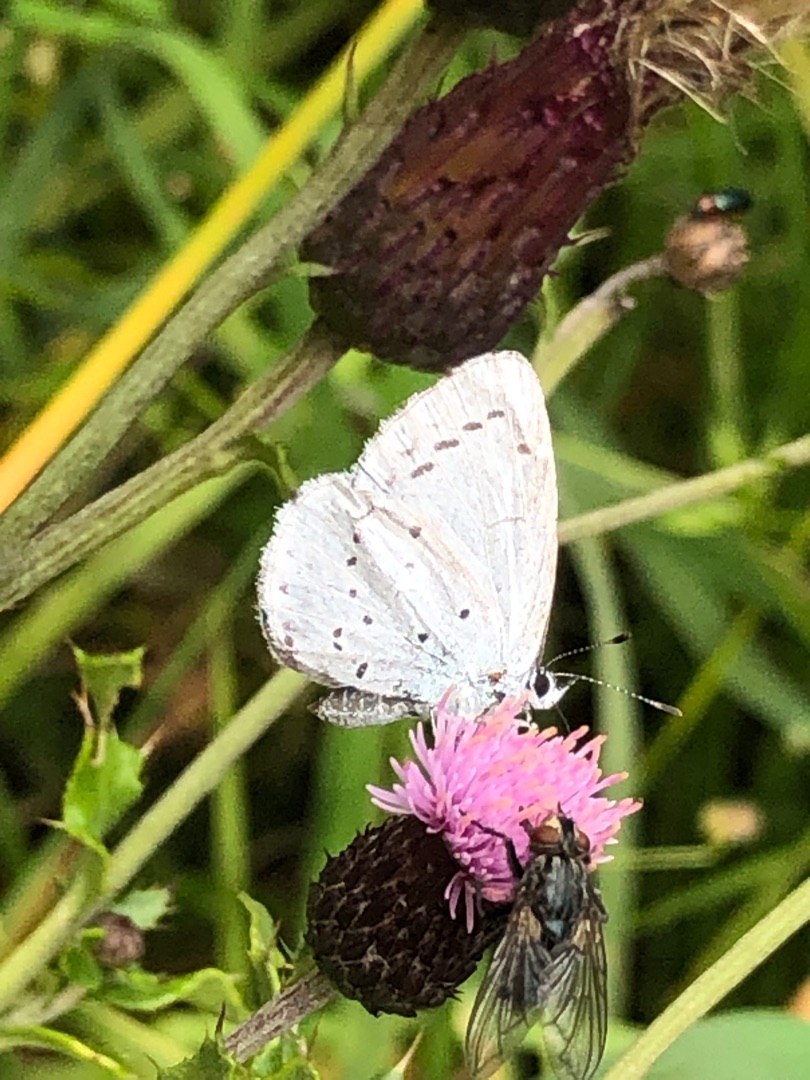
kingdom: Animalia
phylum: Arthropoda
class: Insecta
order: Lepidoptera
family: Lycaenidae
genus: Celastrina
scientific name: Celastrina argiolus
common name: Skovblåfugl
